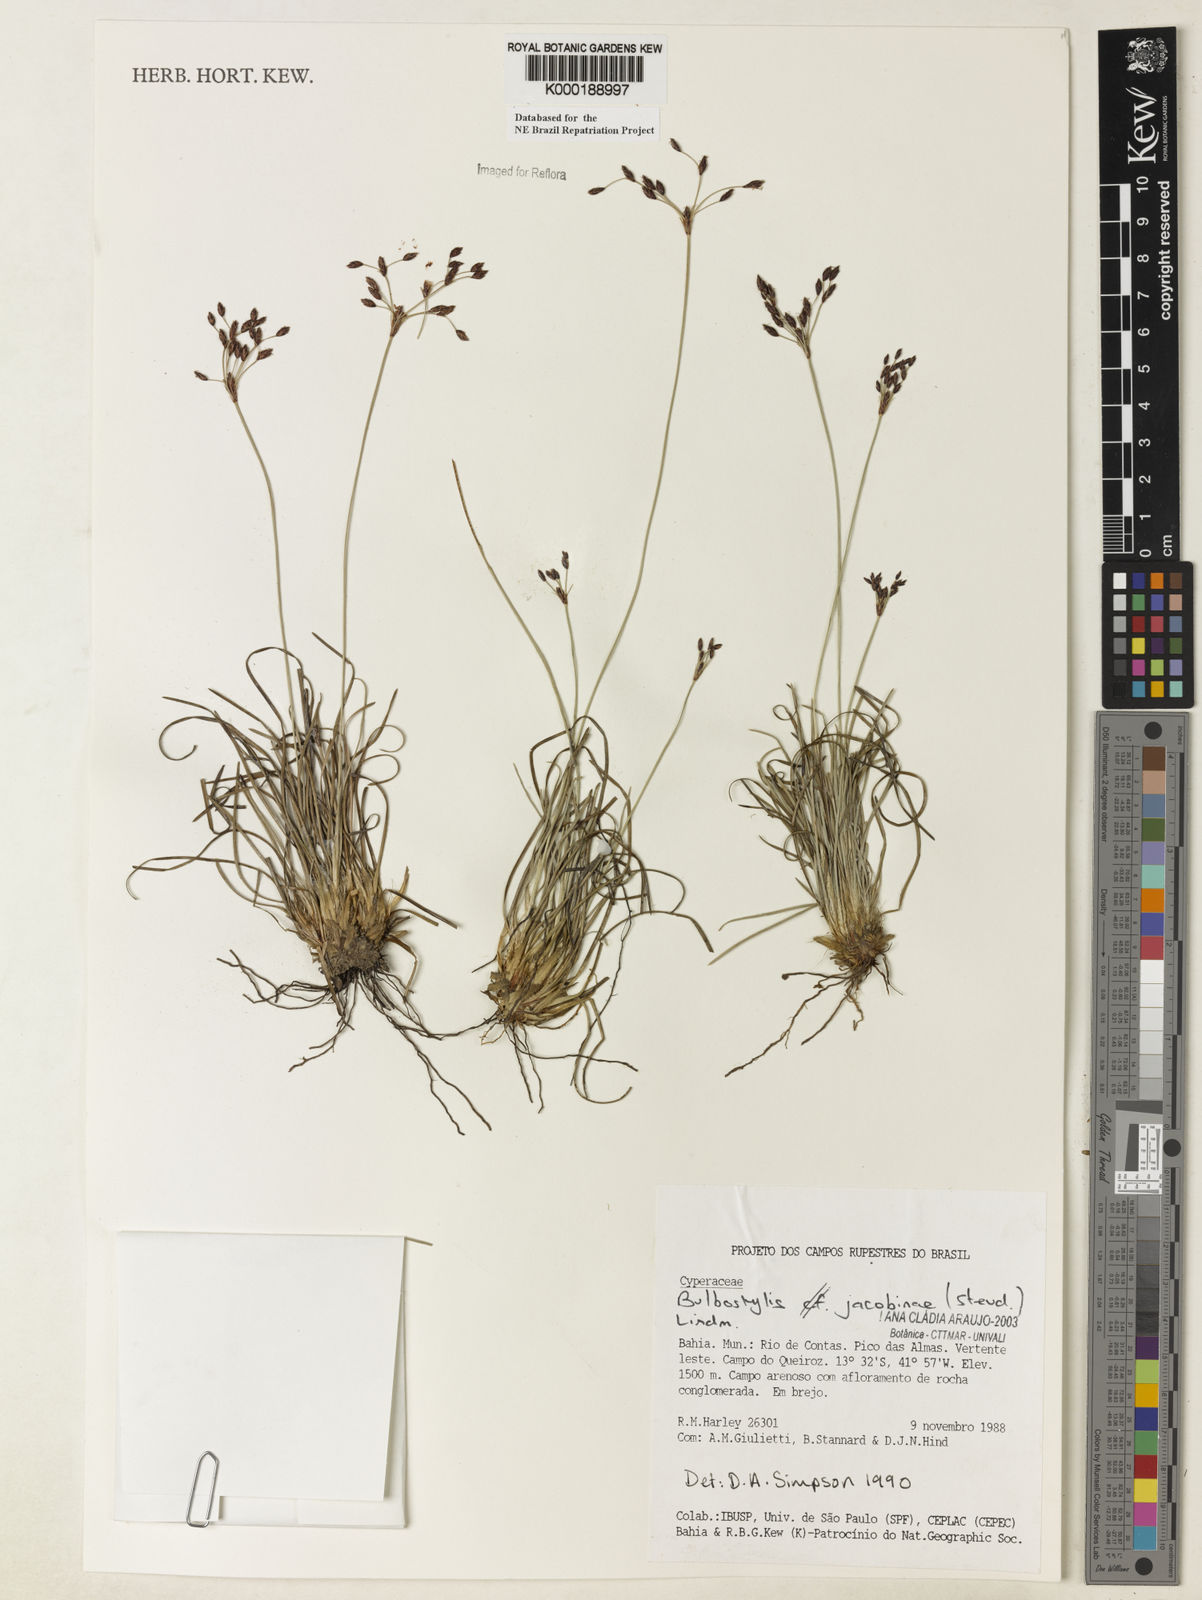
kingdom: Plantae
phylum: Tracheophyta
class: Liliopsida
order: Poales
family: Cyperaceae
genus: Bulbostylis
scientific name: Bulbostylis jacobinae
